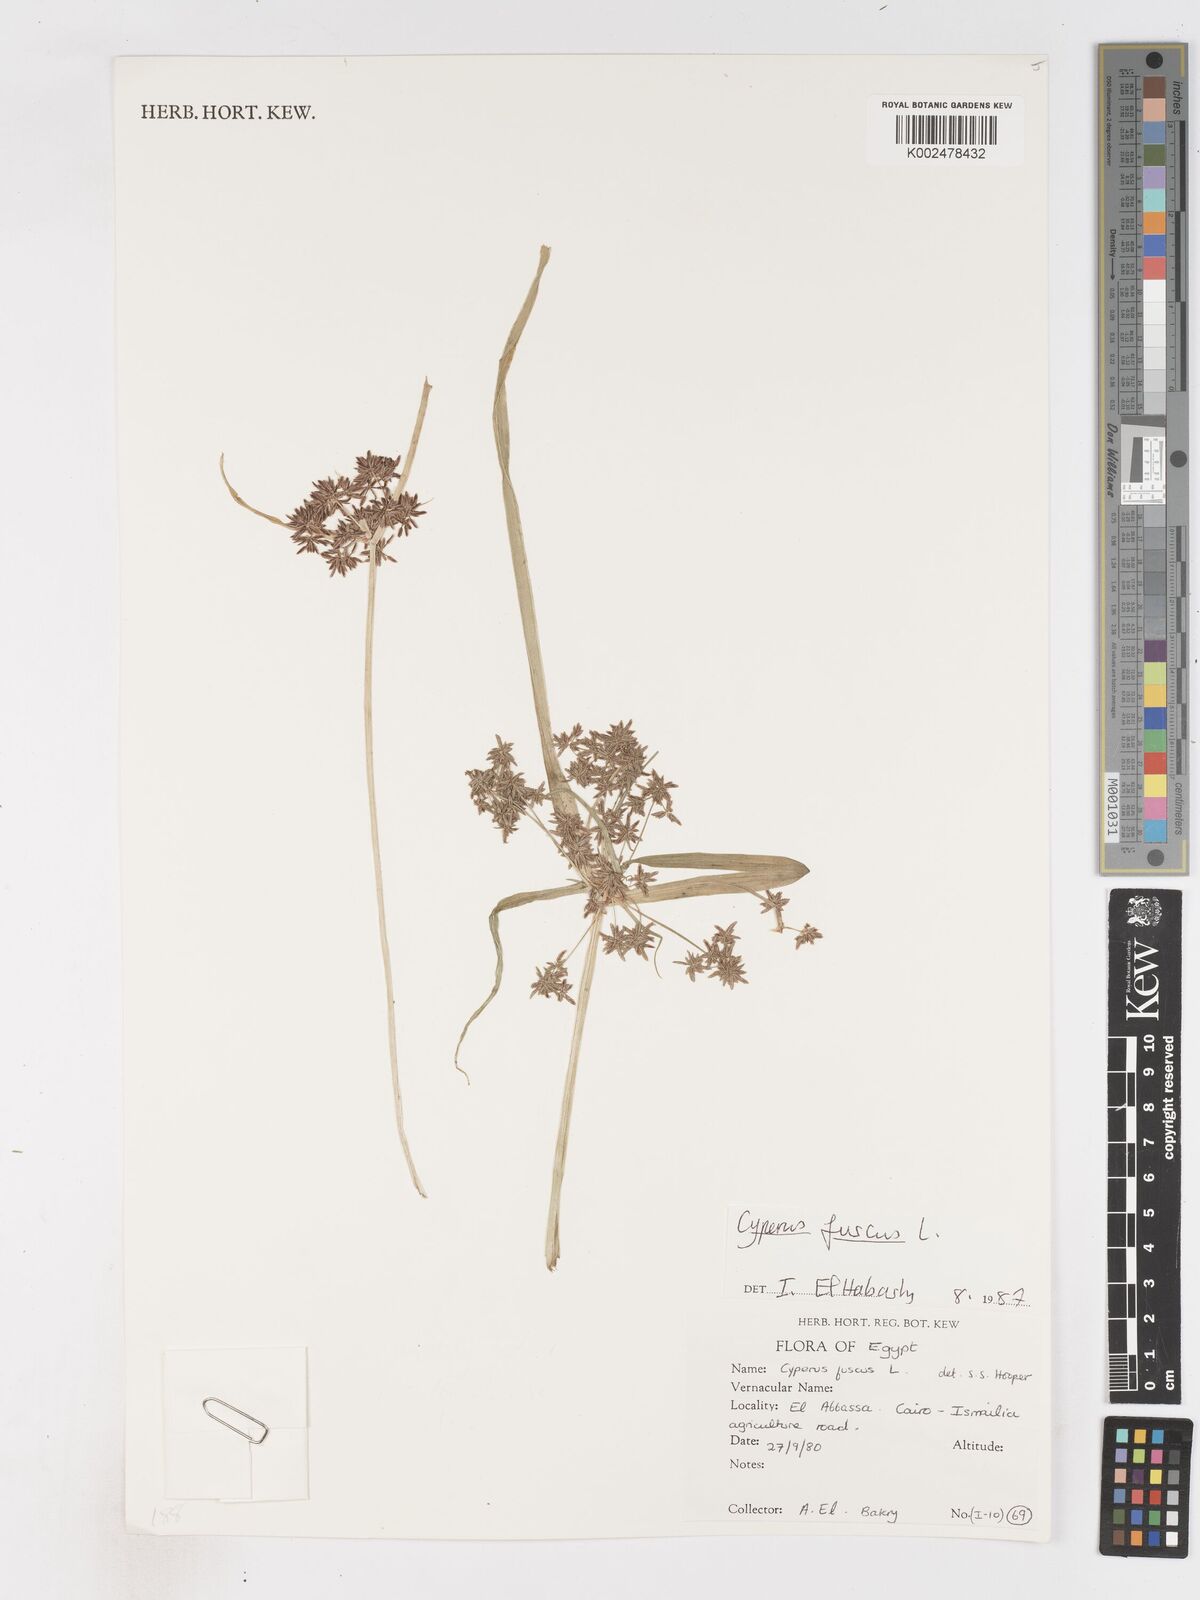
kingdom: Plantae
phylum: Tracheophyta
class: Liliopsida
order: Poales
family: Cyperaceae
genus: Cyperus
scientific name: Cyperus fuscus
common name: Brown galingale
